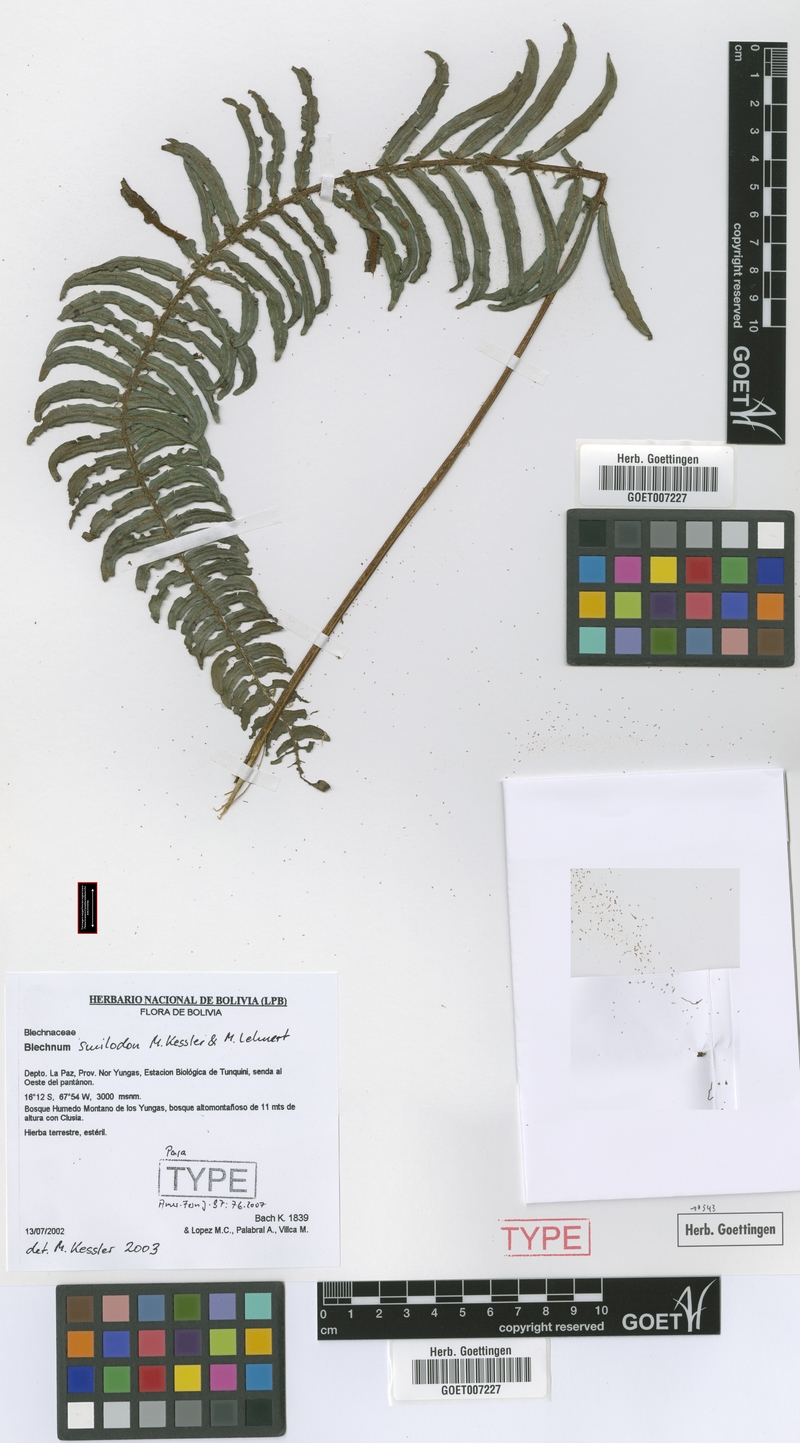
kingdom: Plantae
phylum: Tracheophyta
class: Polypodiopsida
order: Polypodiales
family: Blechnaceae
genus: Parablechnum
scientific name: Parablechnum smilodon
